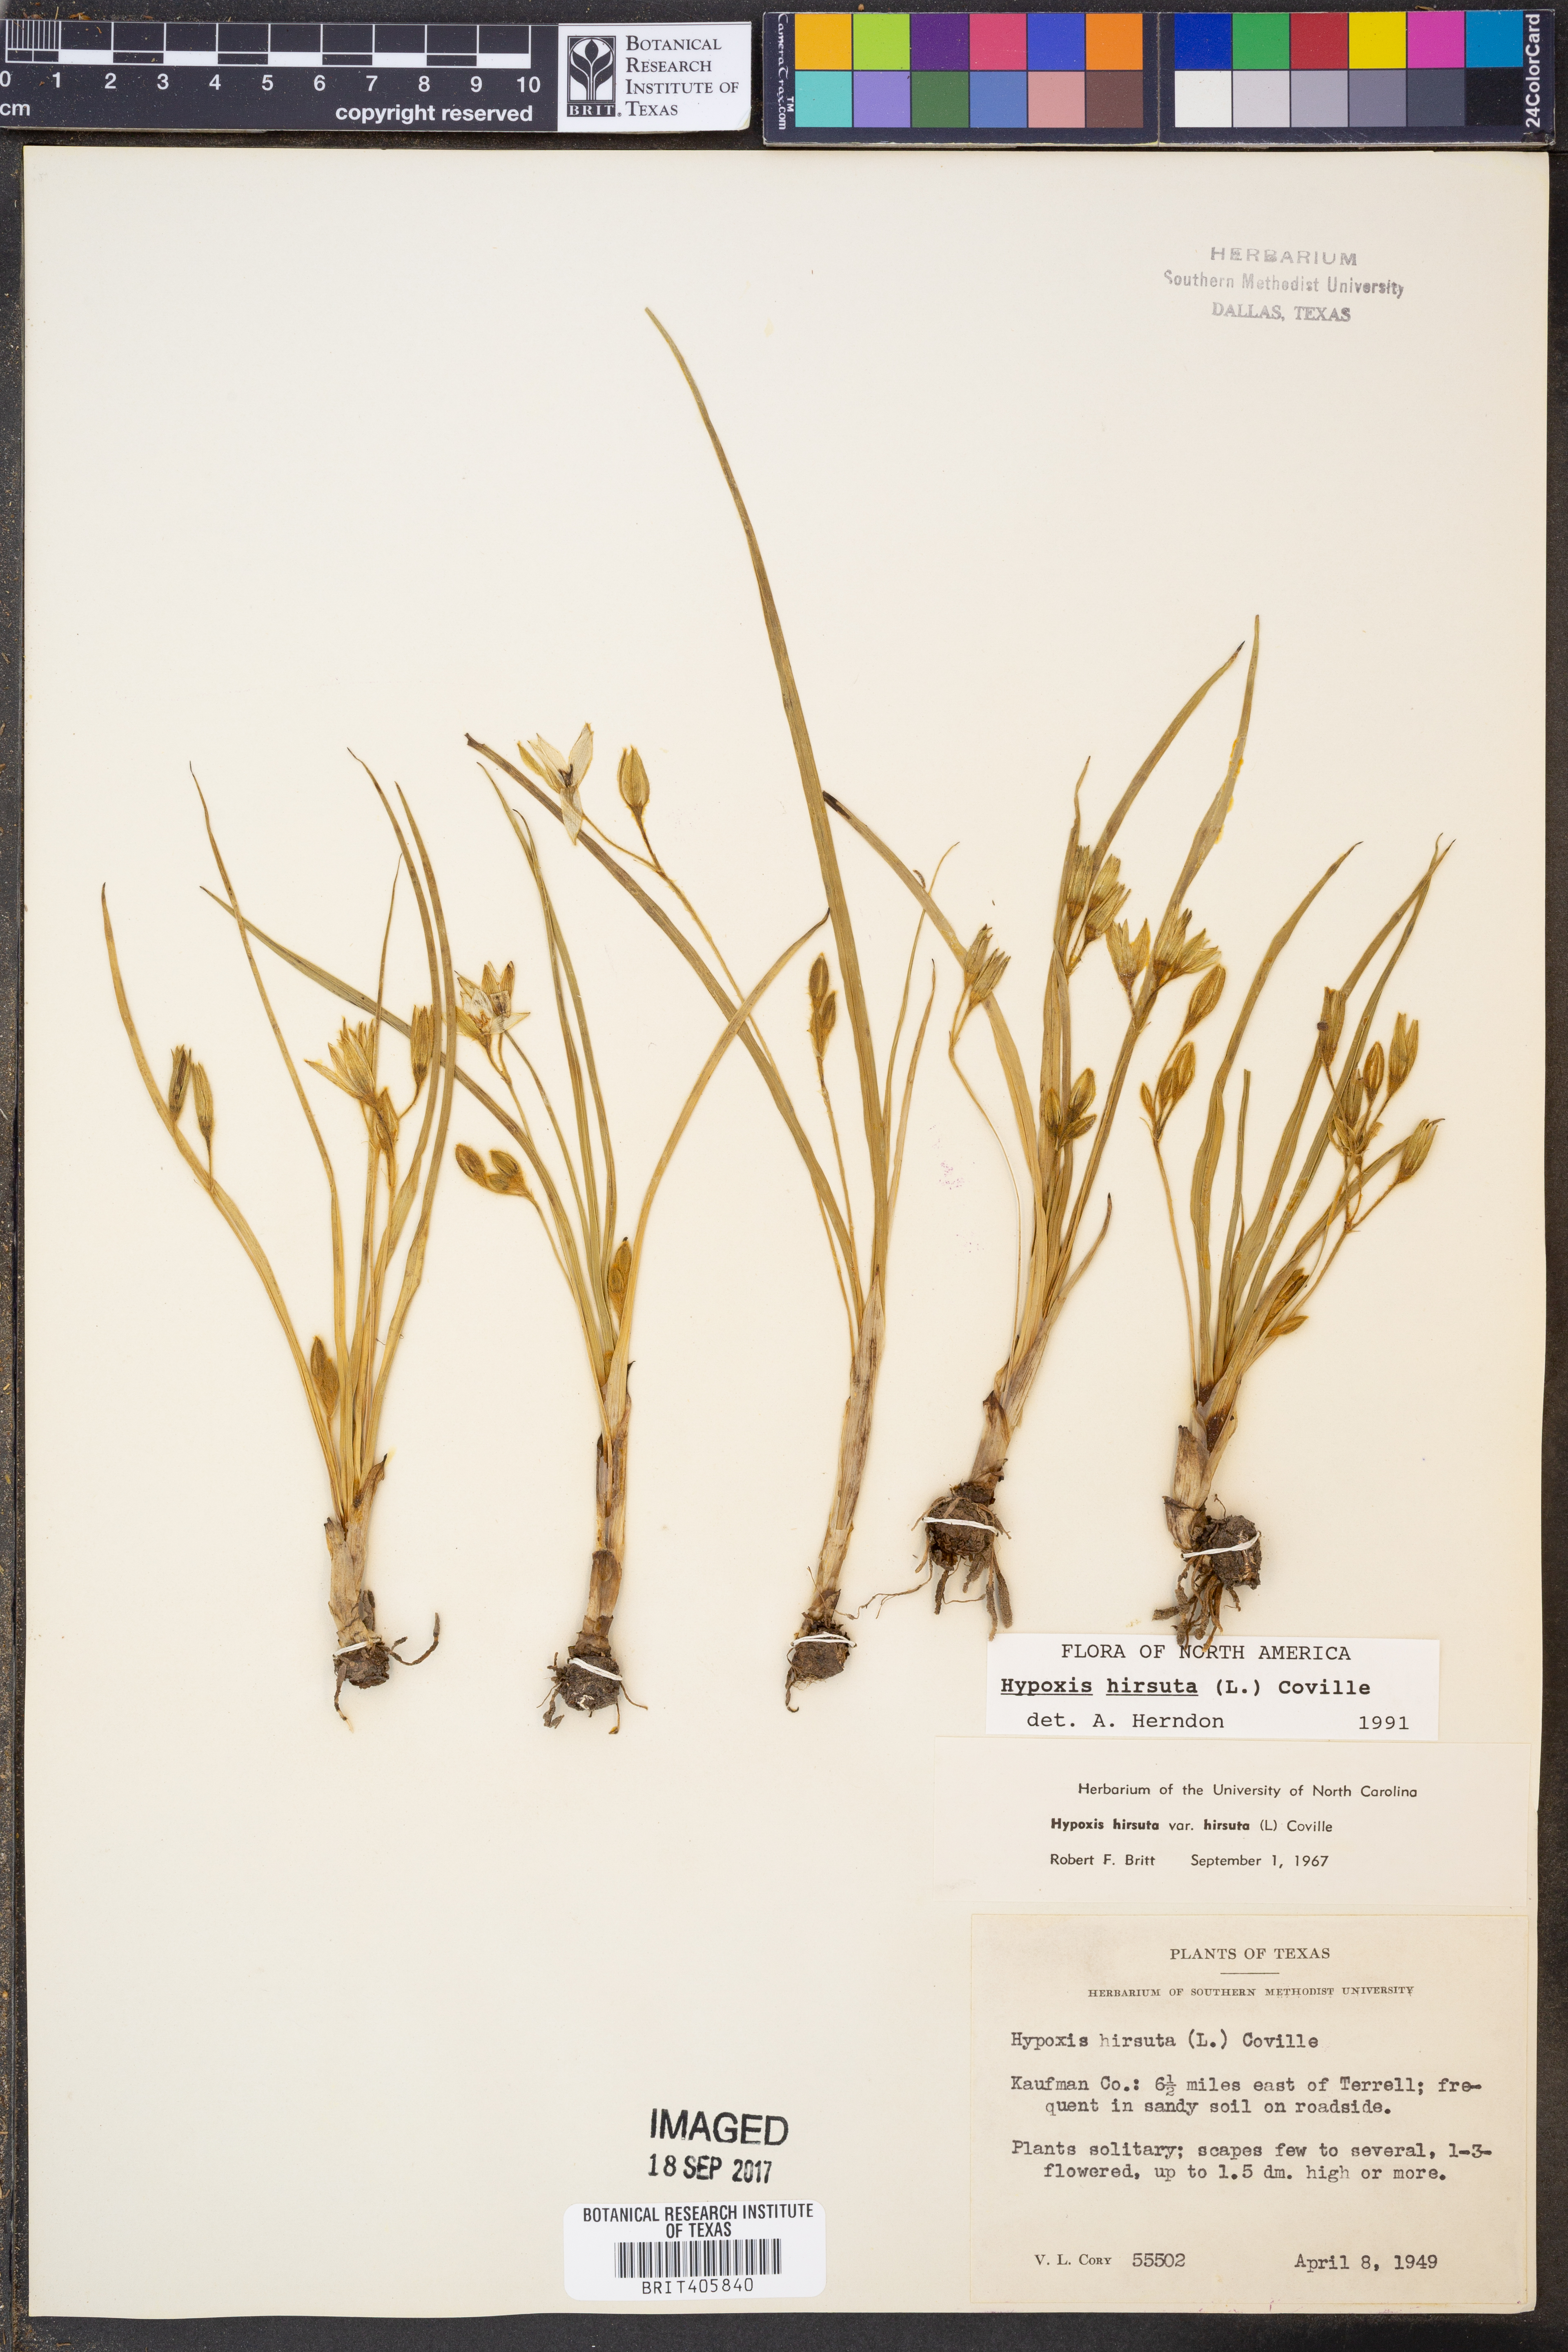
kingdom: Plantae
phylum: Tracheophyta
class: Liliopsida
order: Asparagales
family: Hypoxidaceae
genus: Hypoxis
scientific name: Hypoxis hirsuta
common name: Common goldstar
